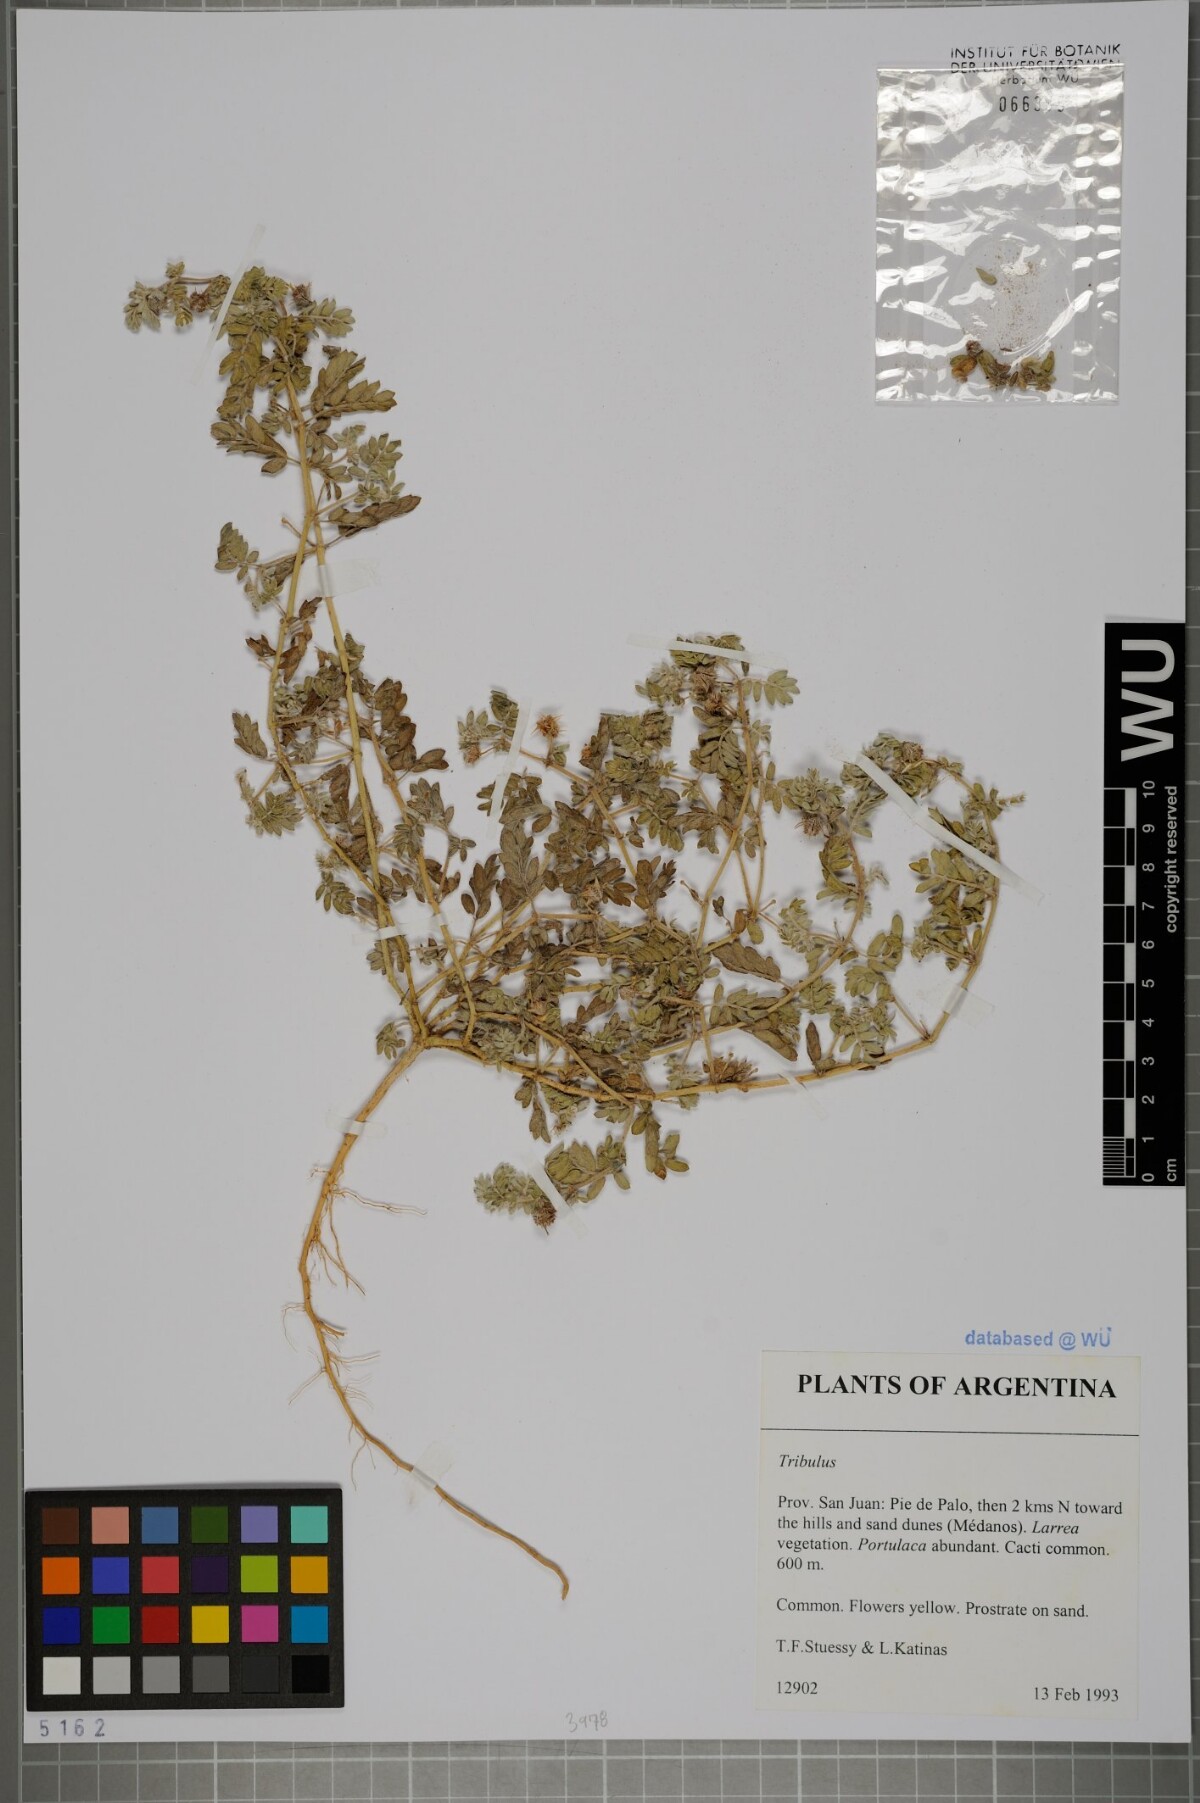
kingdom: Plantae
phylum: Tracheophyta
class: Magnoliopsida
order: Zygophyllales
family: Zygophyllaceae
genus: Tribulus
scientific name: Tribulus
